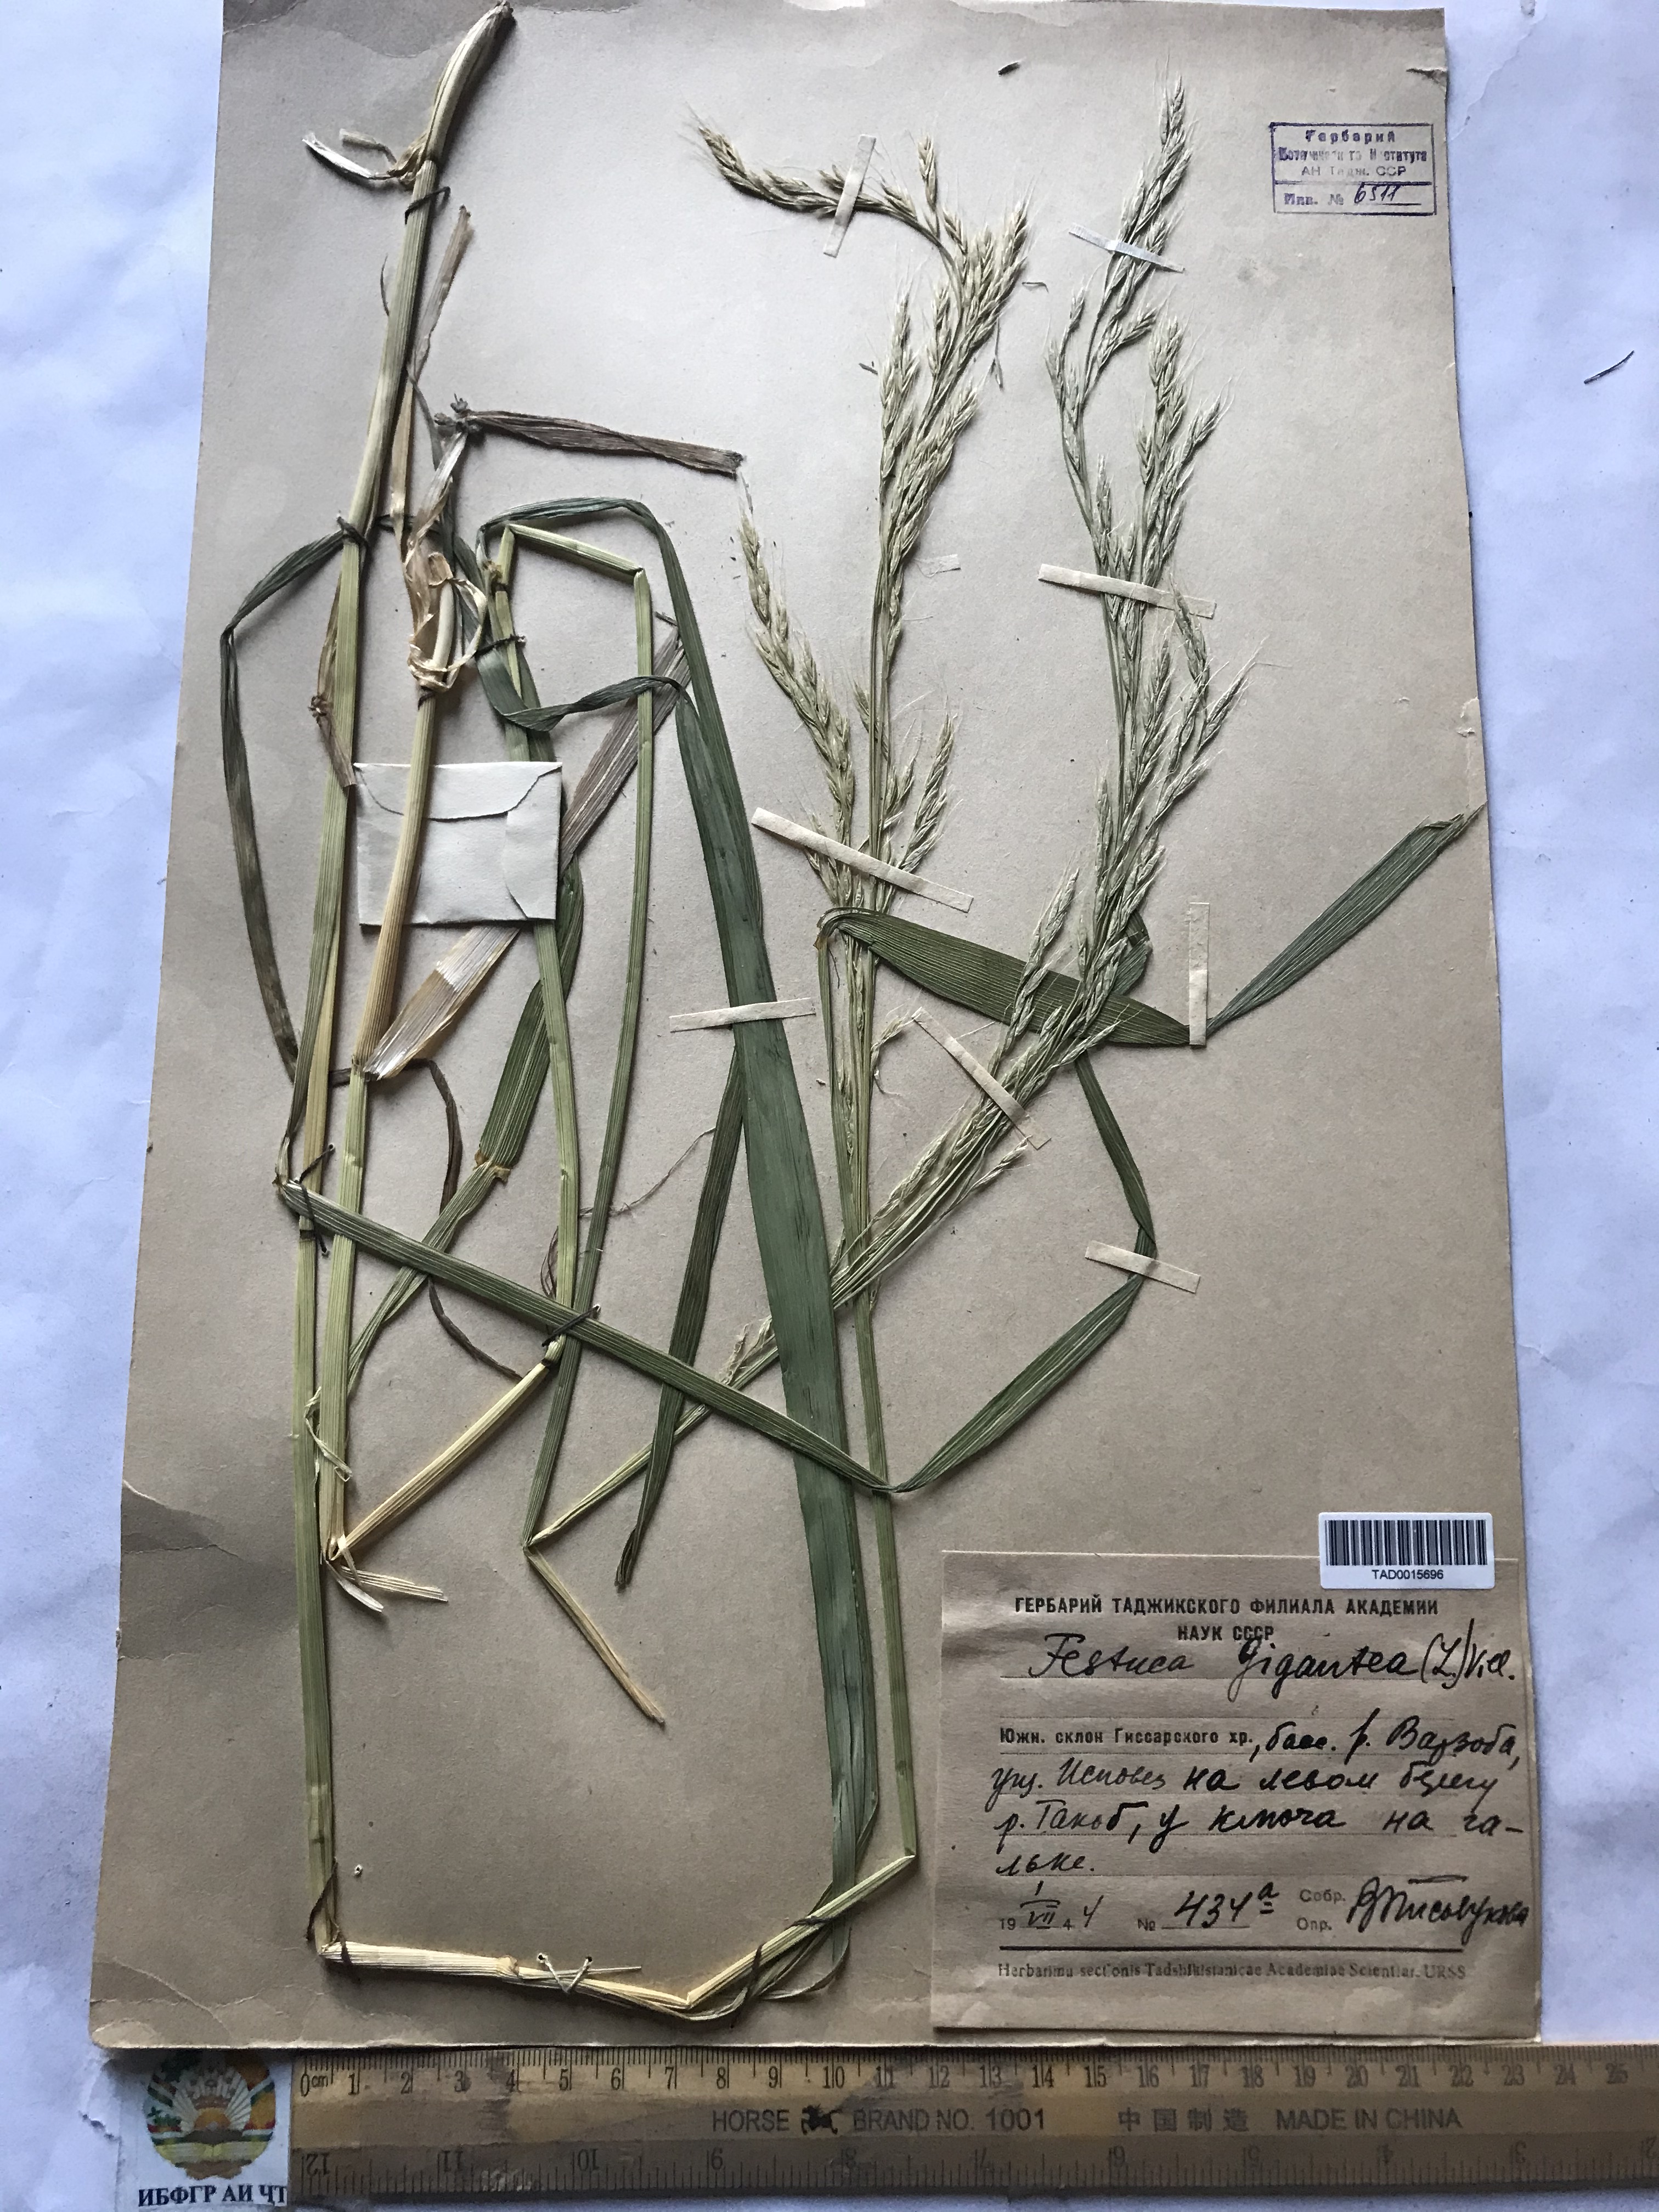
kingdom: Plantae
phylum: Tracheophyta
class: Liliopsida
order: Poales
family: Poaceae
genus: Lolium
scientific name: Lolium giganteum
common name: Giant fescue
